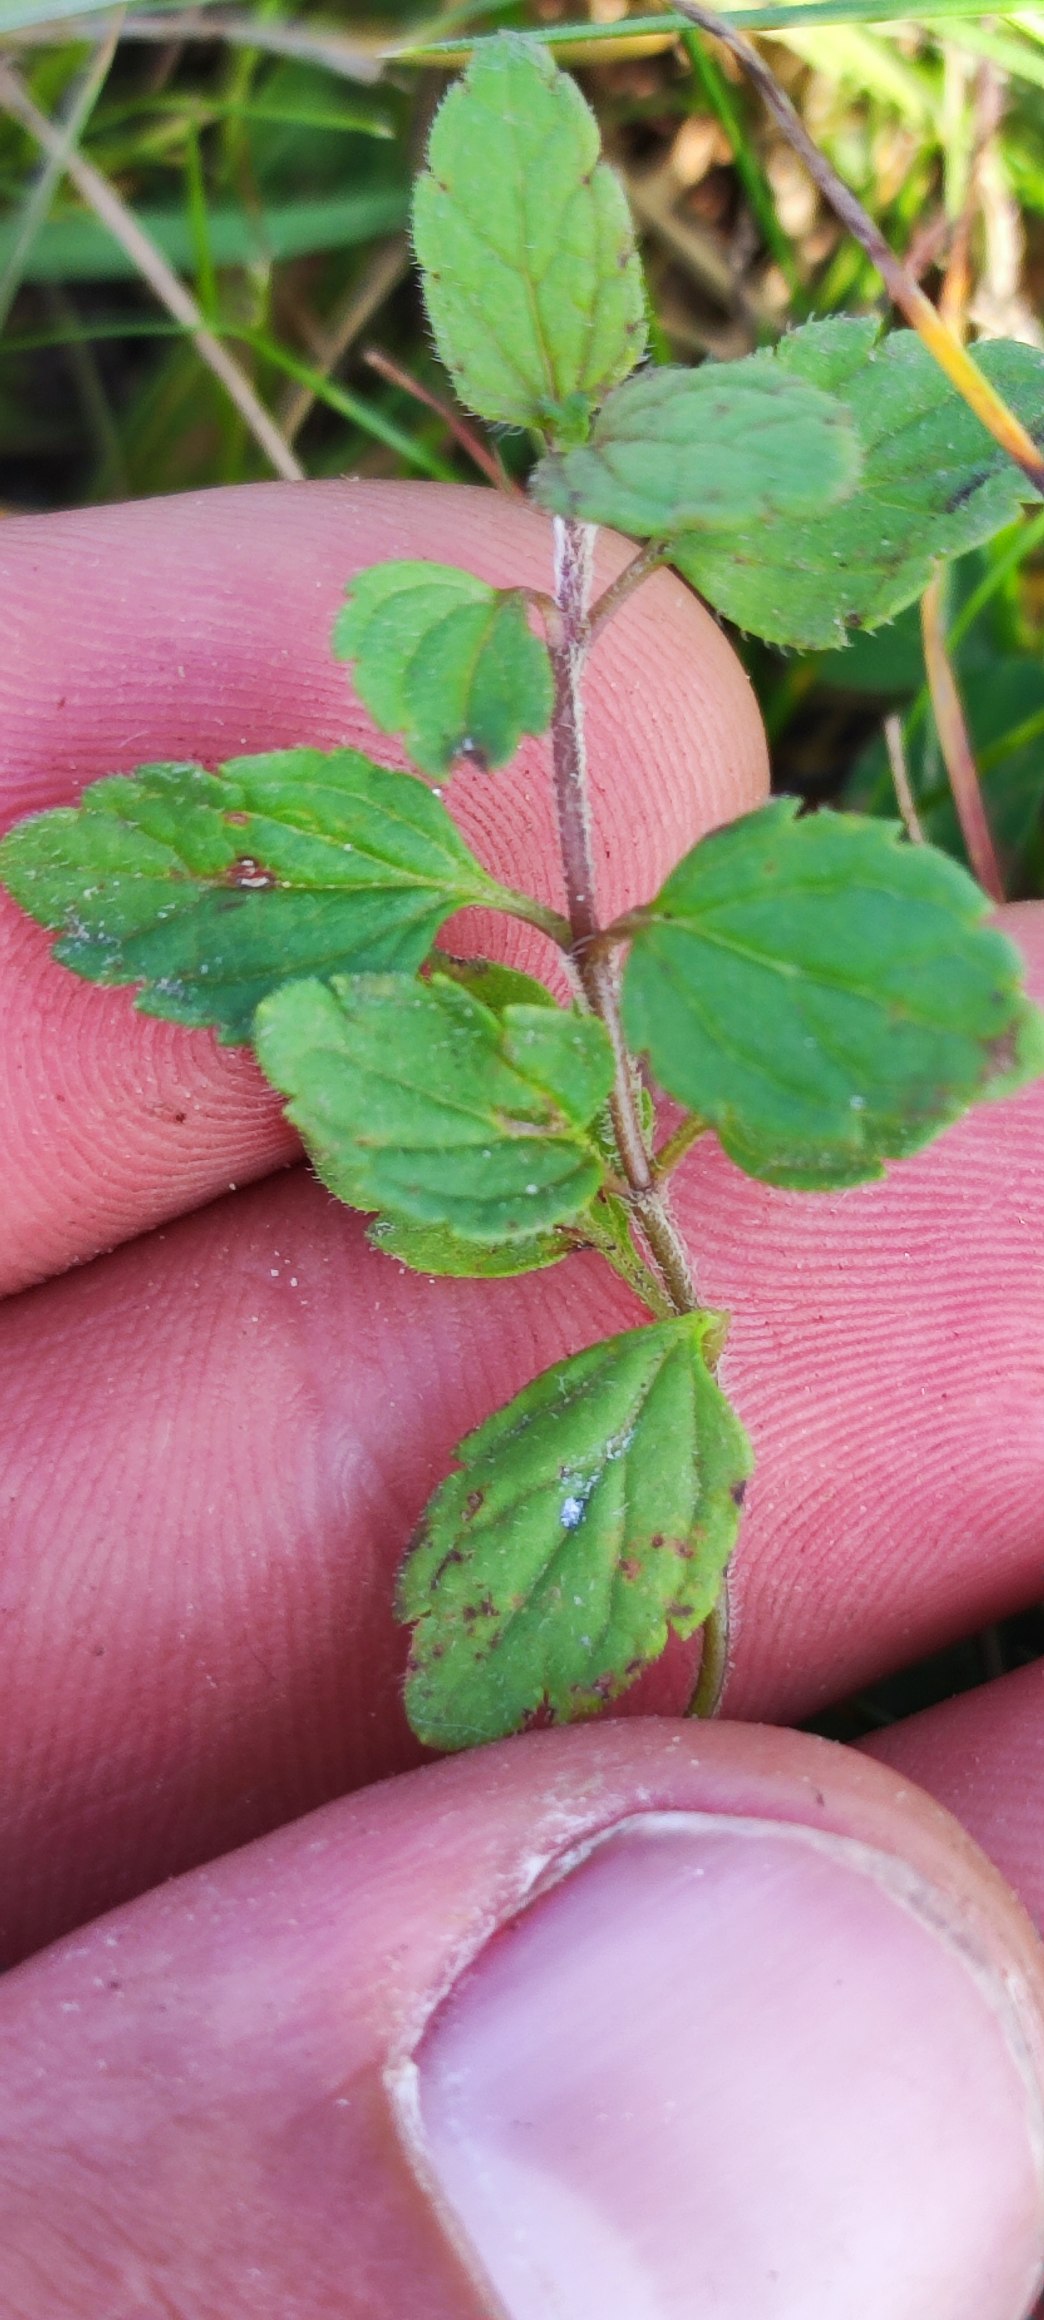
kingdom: Plantae
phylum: Tracheophyta
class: Magnoliopsida
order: Lamiales
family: Plantaginaceae
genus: Veronica
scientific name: Veronica chamaedrys
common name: Tveskægget ærenpris
